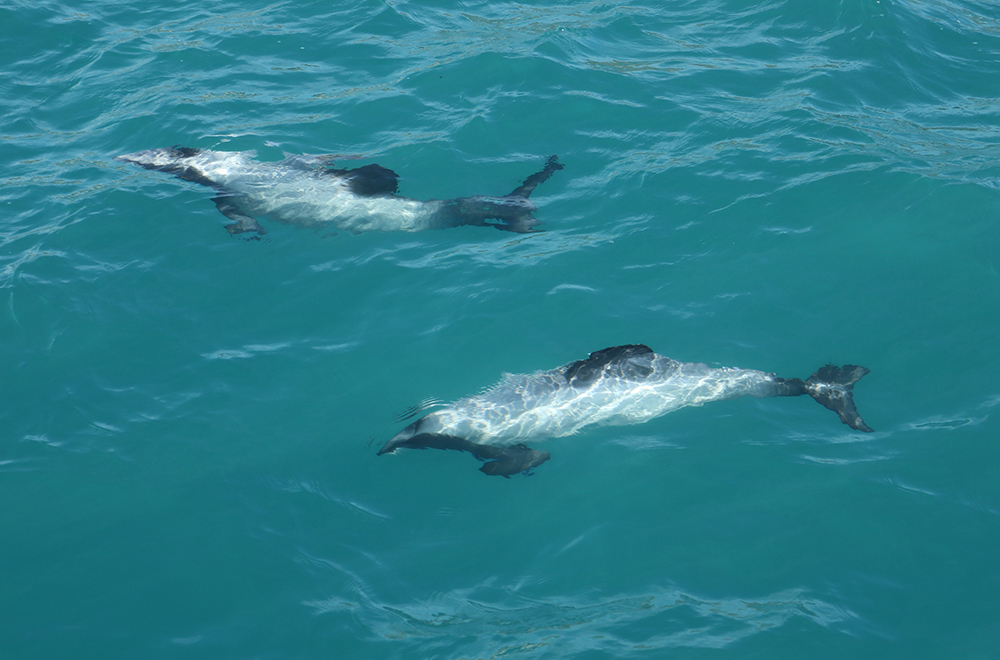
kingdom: Animalia
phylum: Chordata
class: Mammalia
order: Cetacea
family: Delphinidae
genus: Cephalorhynchus
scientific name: Cephalorhynchus hectori
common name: Hector's dolphin
